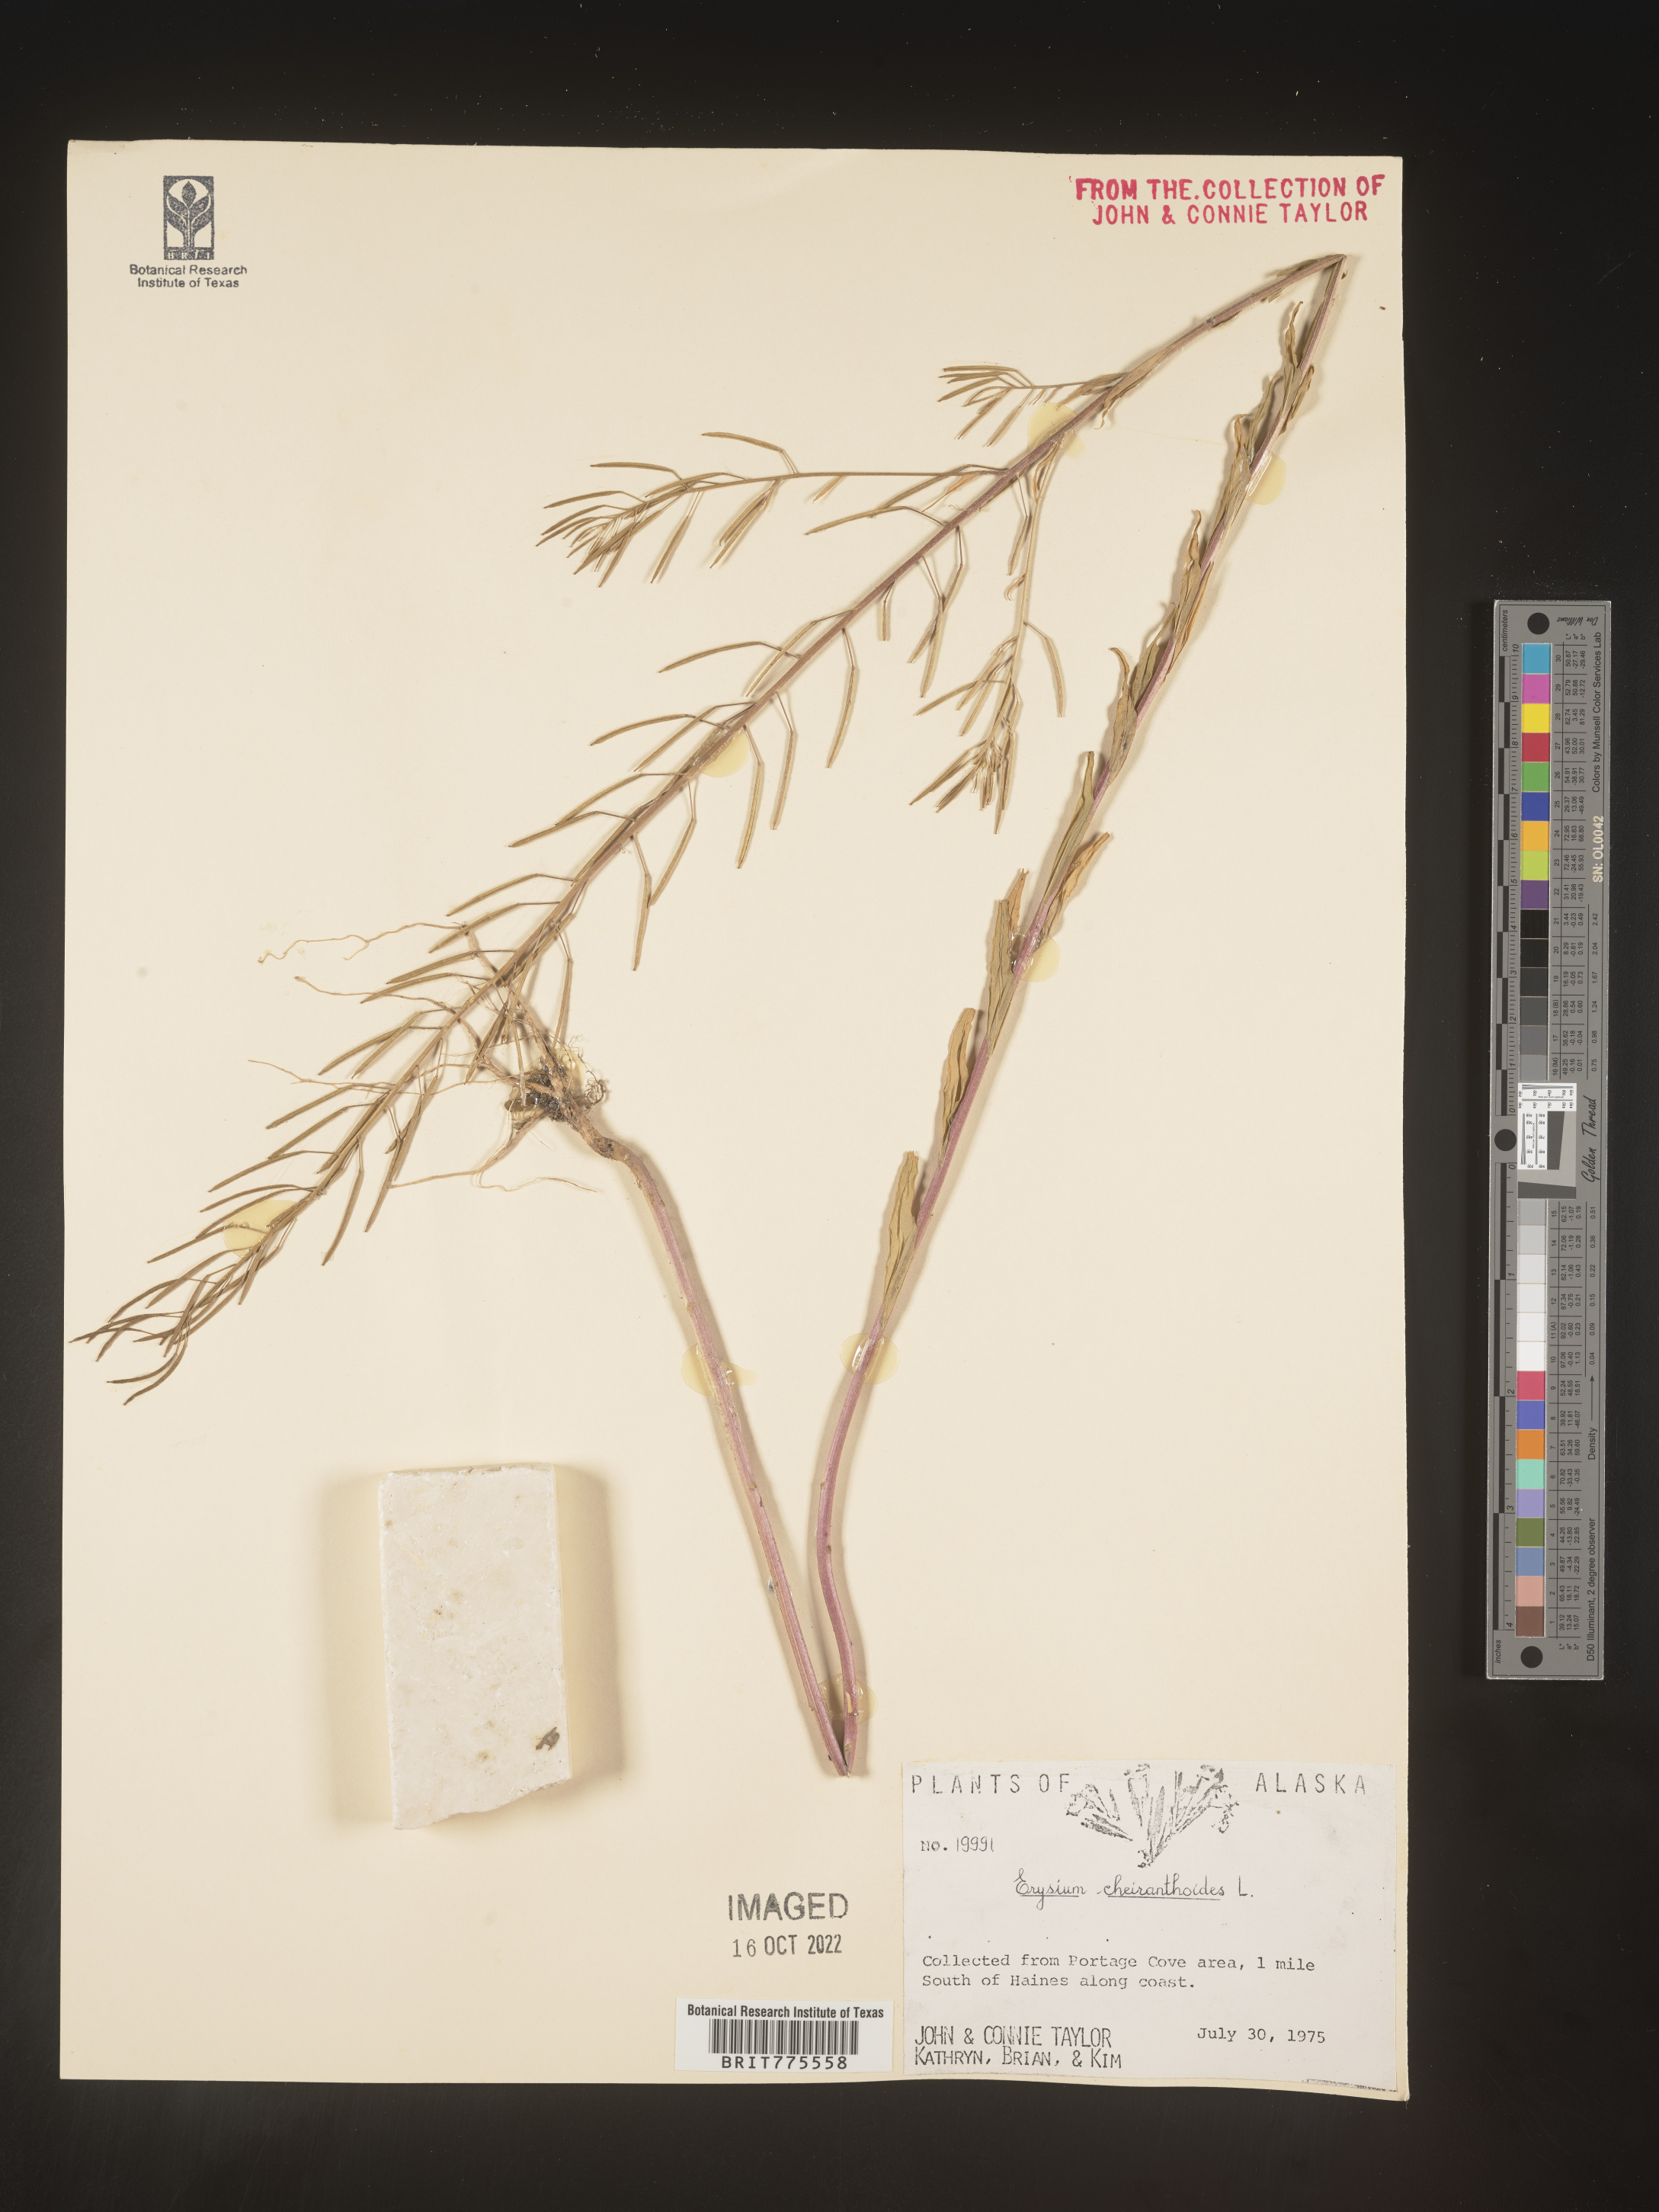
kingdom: Plantae
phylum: Tracheophyta
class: Magnoliopsida
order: Brassicales
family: Brassicaceae
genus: Erysimum
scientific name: Erysimum cheiranthoides
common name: Treacle mustard
